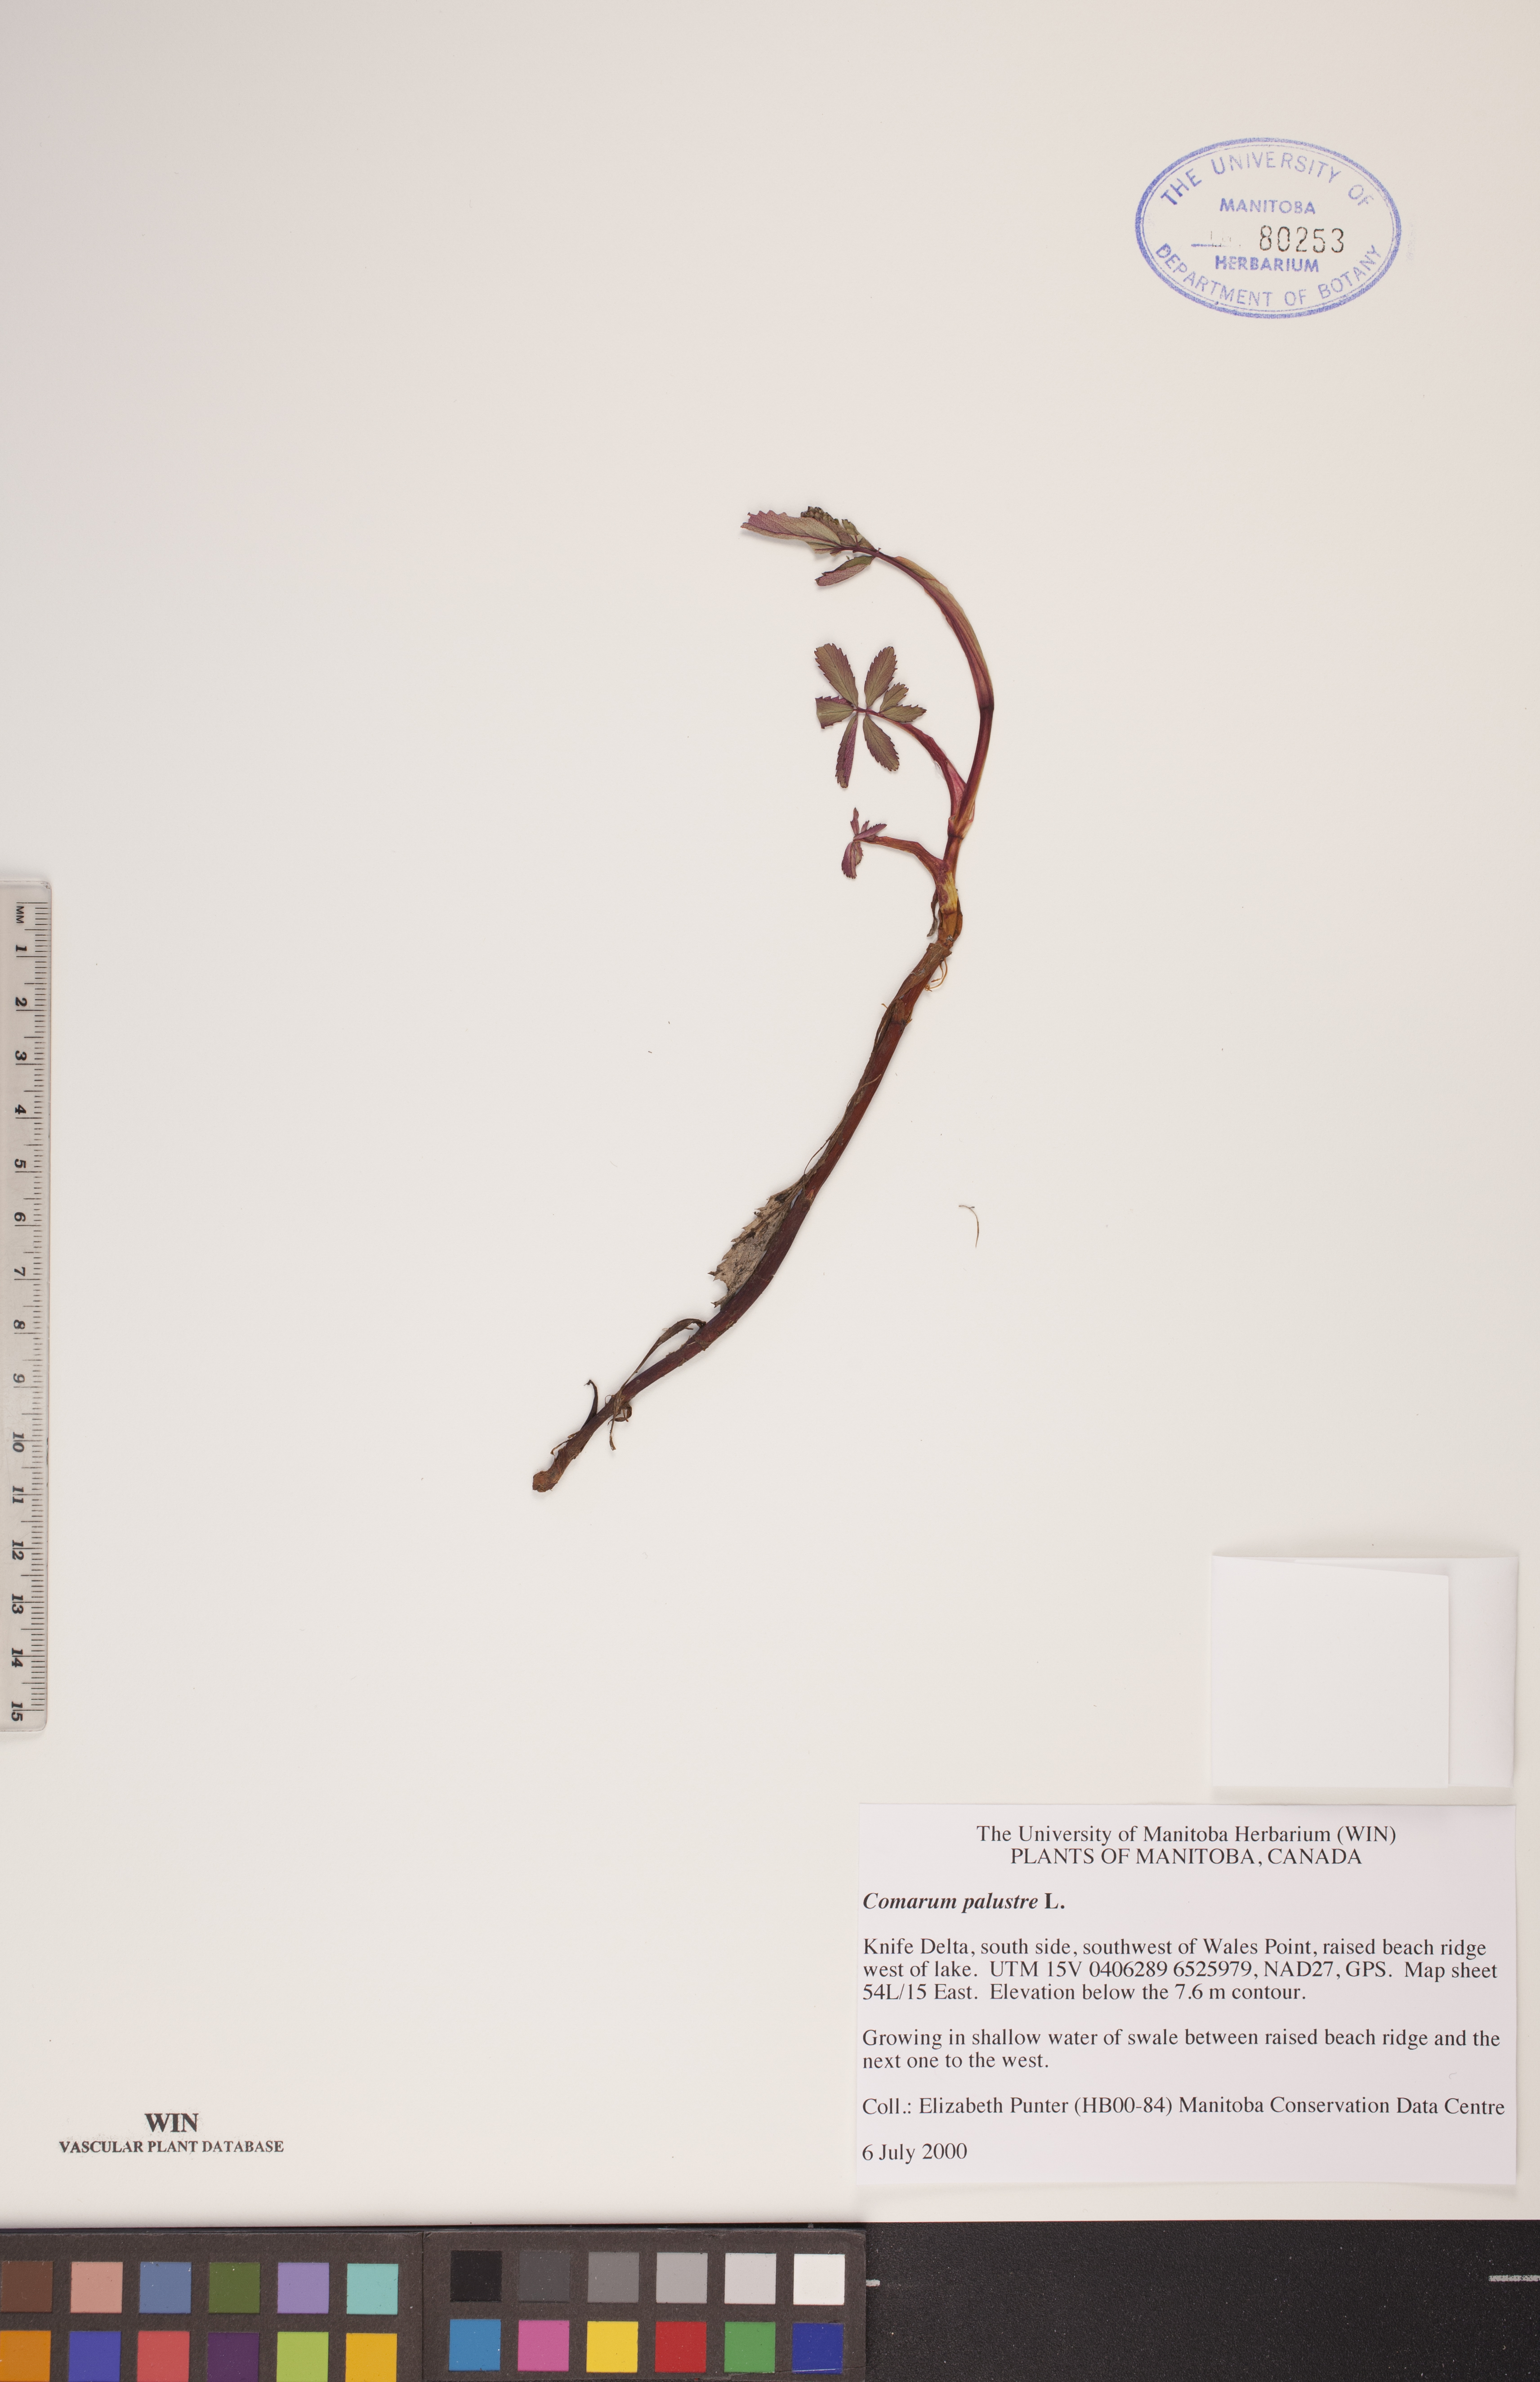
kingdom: Plantae
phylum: Tracheophyta
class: Magnoliopsida
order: Rosales
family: Rosaceae
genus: Comarum
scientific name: Comarum palustre
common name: Marsh cinquefoil
